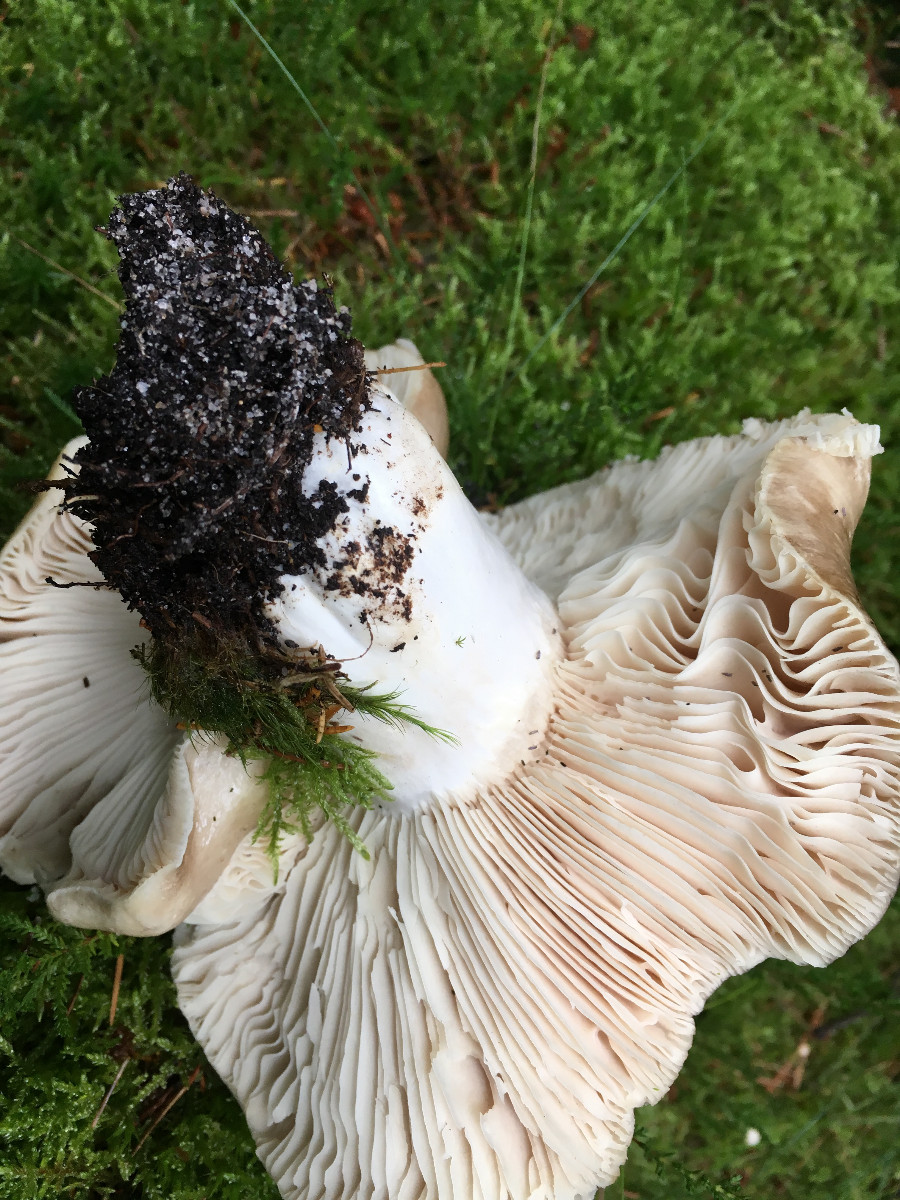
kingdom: Fungi
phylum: Basidiomycota
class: Agaricomycetes
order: Russulales
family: Russulaceae
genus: Russula
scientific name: Russula adusta
